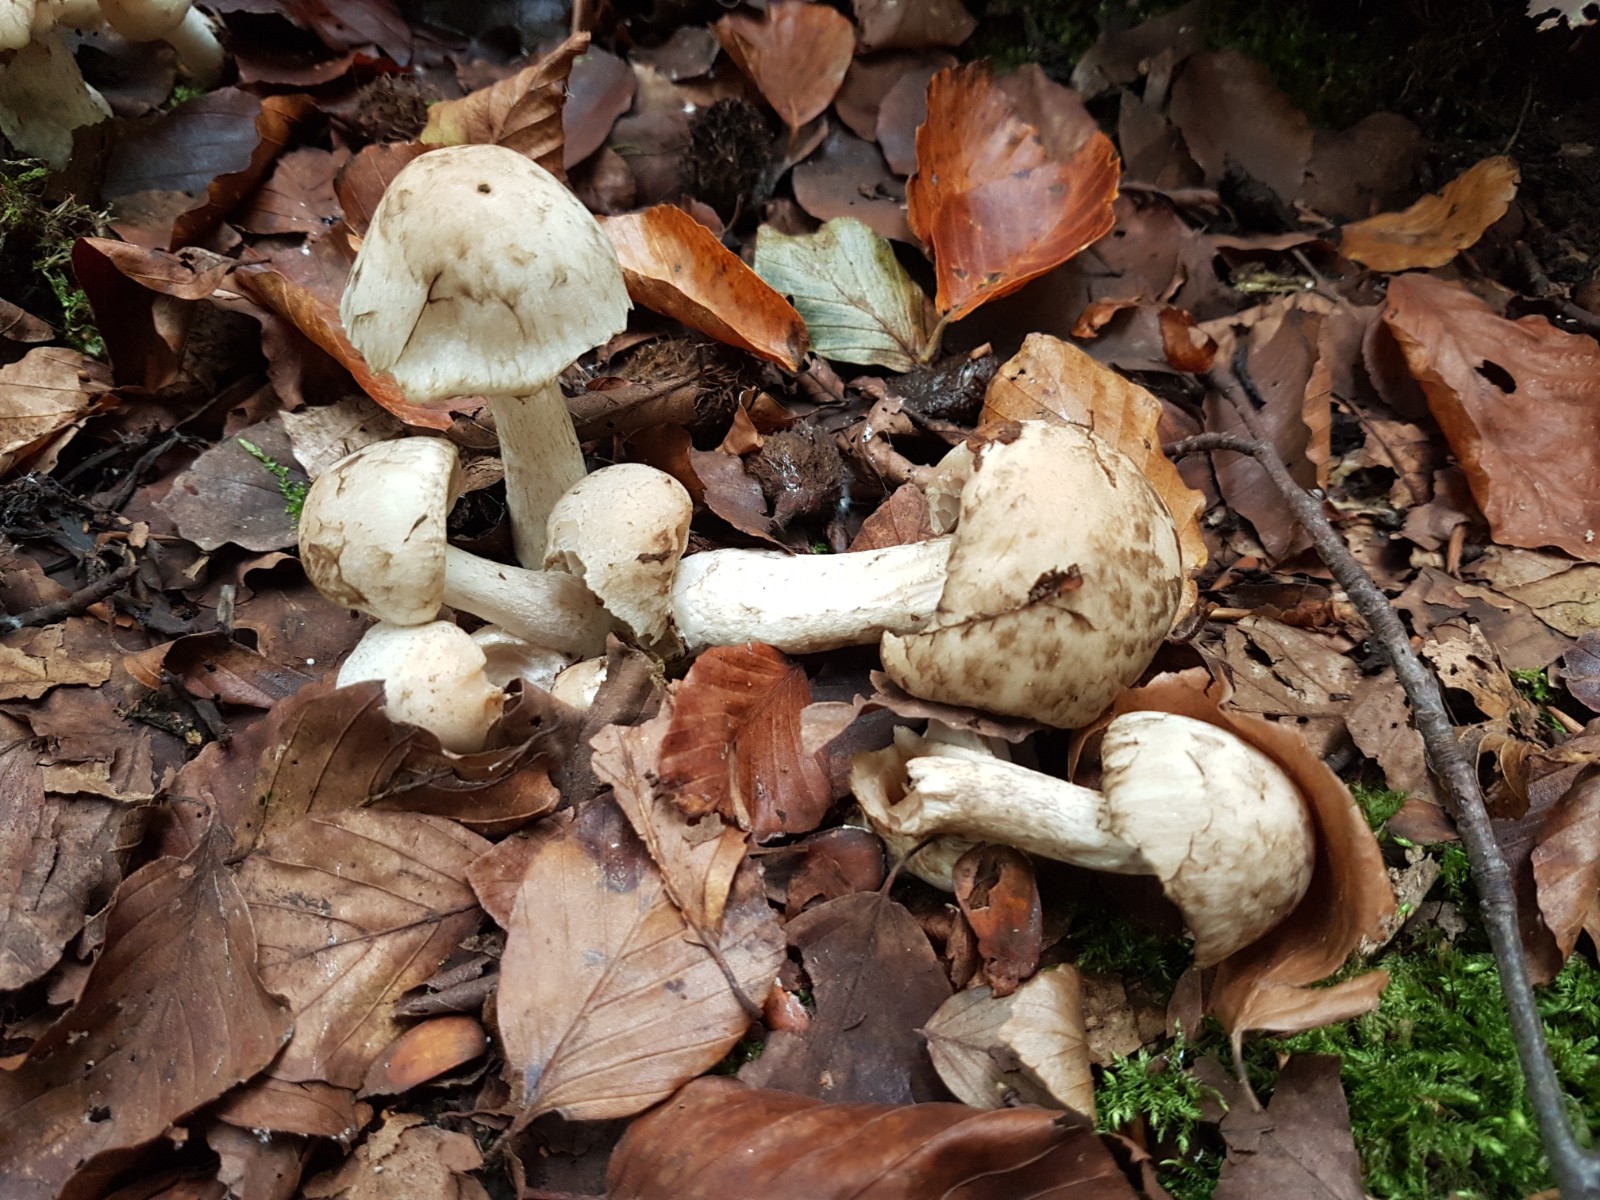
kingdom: Fungi
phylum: Basidiomycota
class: Agaricomycetes
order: Agaricales
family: Psathyrellaceae
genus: Psathyrella
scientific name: Psathyrella cotonea
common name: skællet mørkhat
